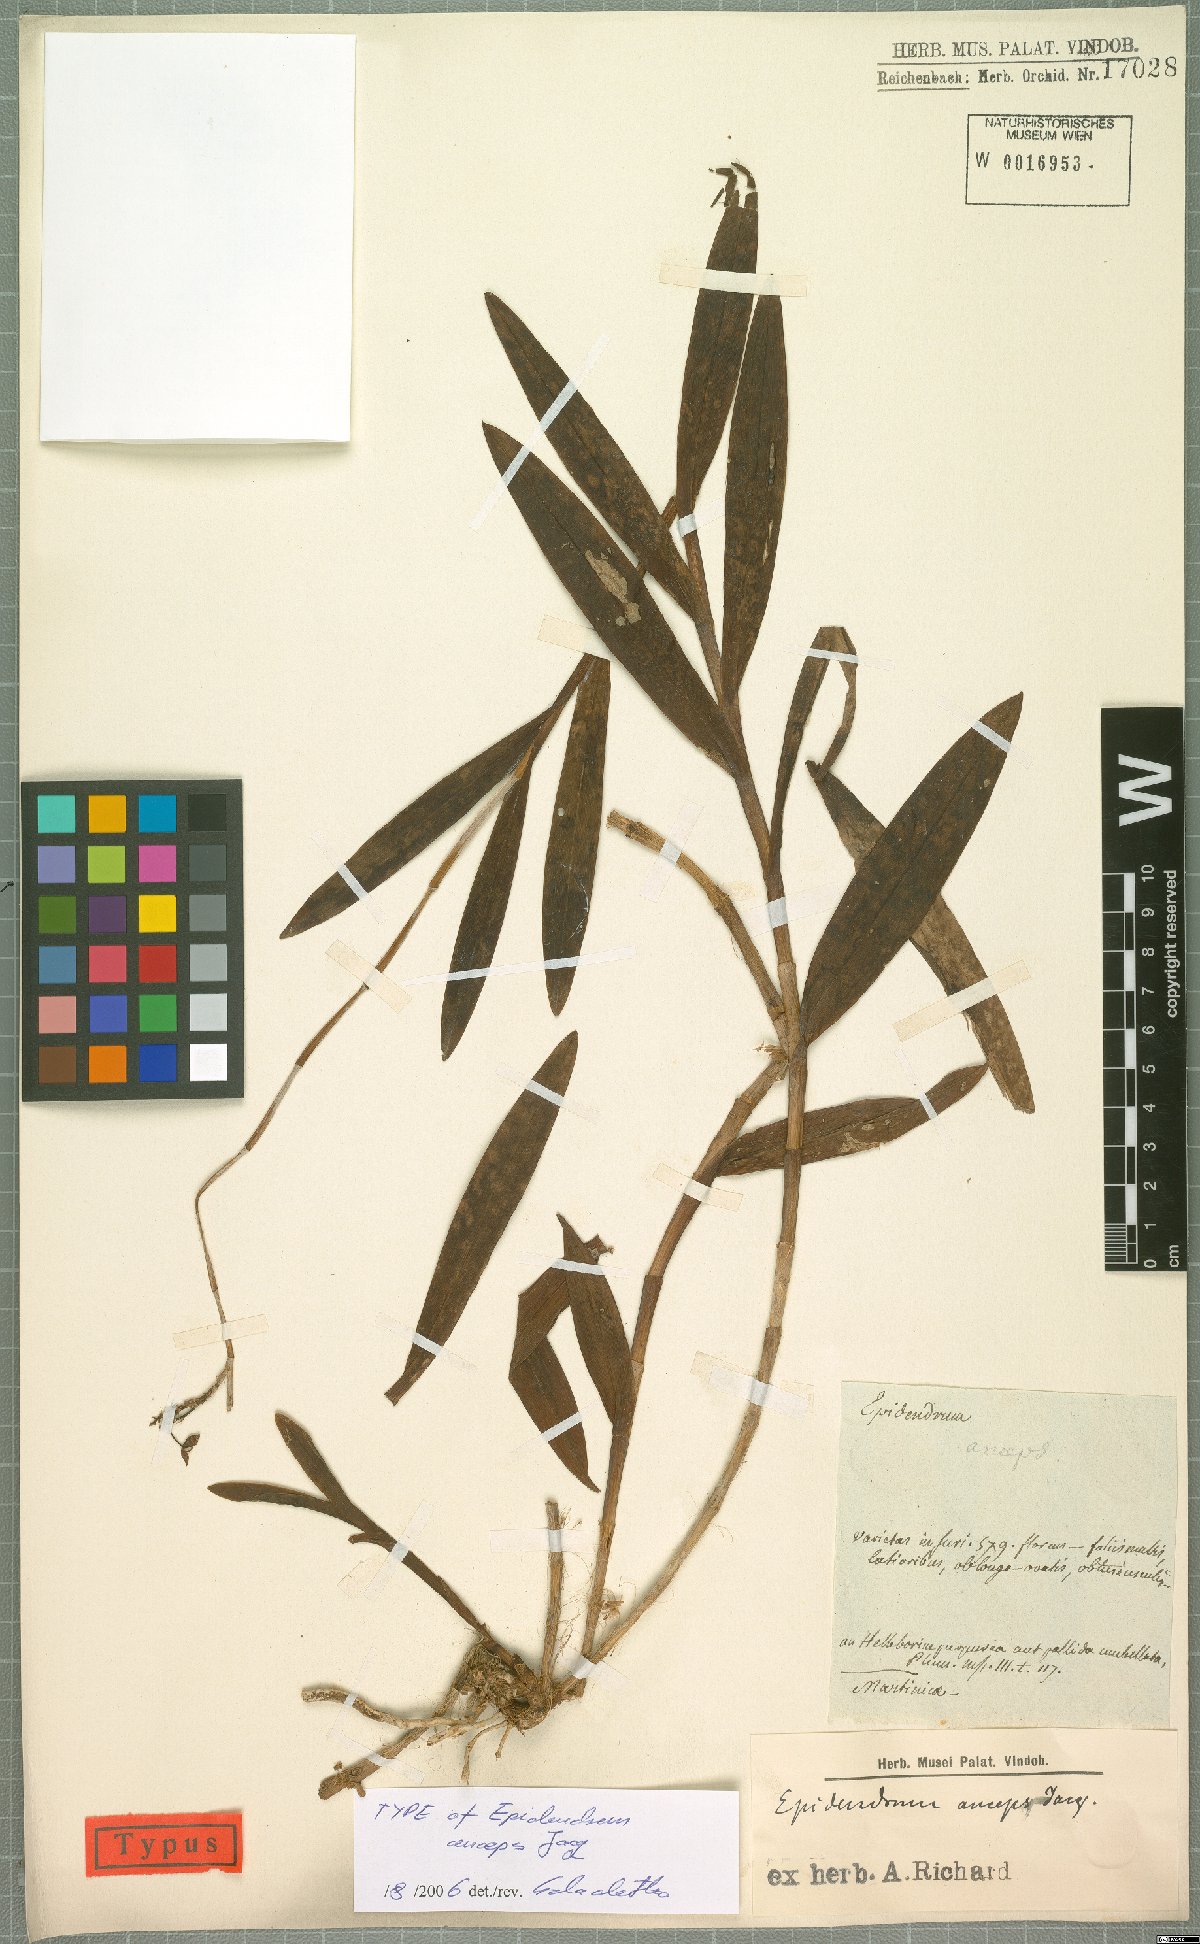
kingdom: Plantae
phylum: Tracheophyta
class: Liliopsida
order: Asparagales
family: Orchidaceae
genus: Epidendrum
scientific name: Epidendrum anceps
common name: Brown-flower butterfly orchid
